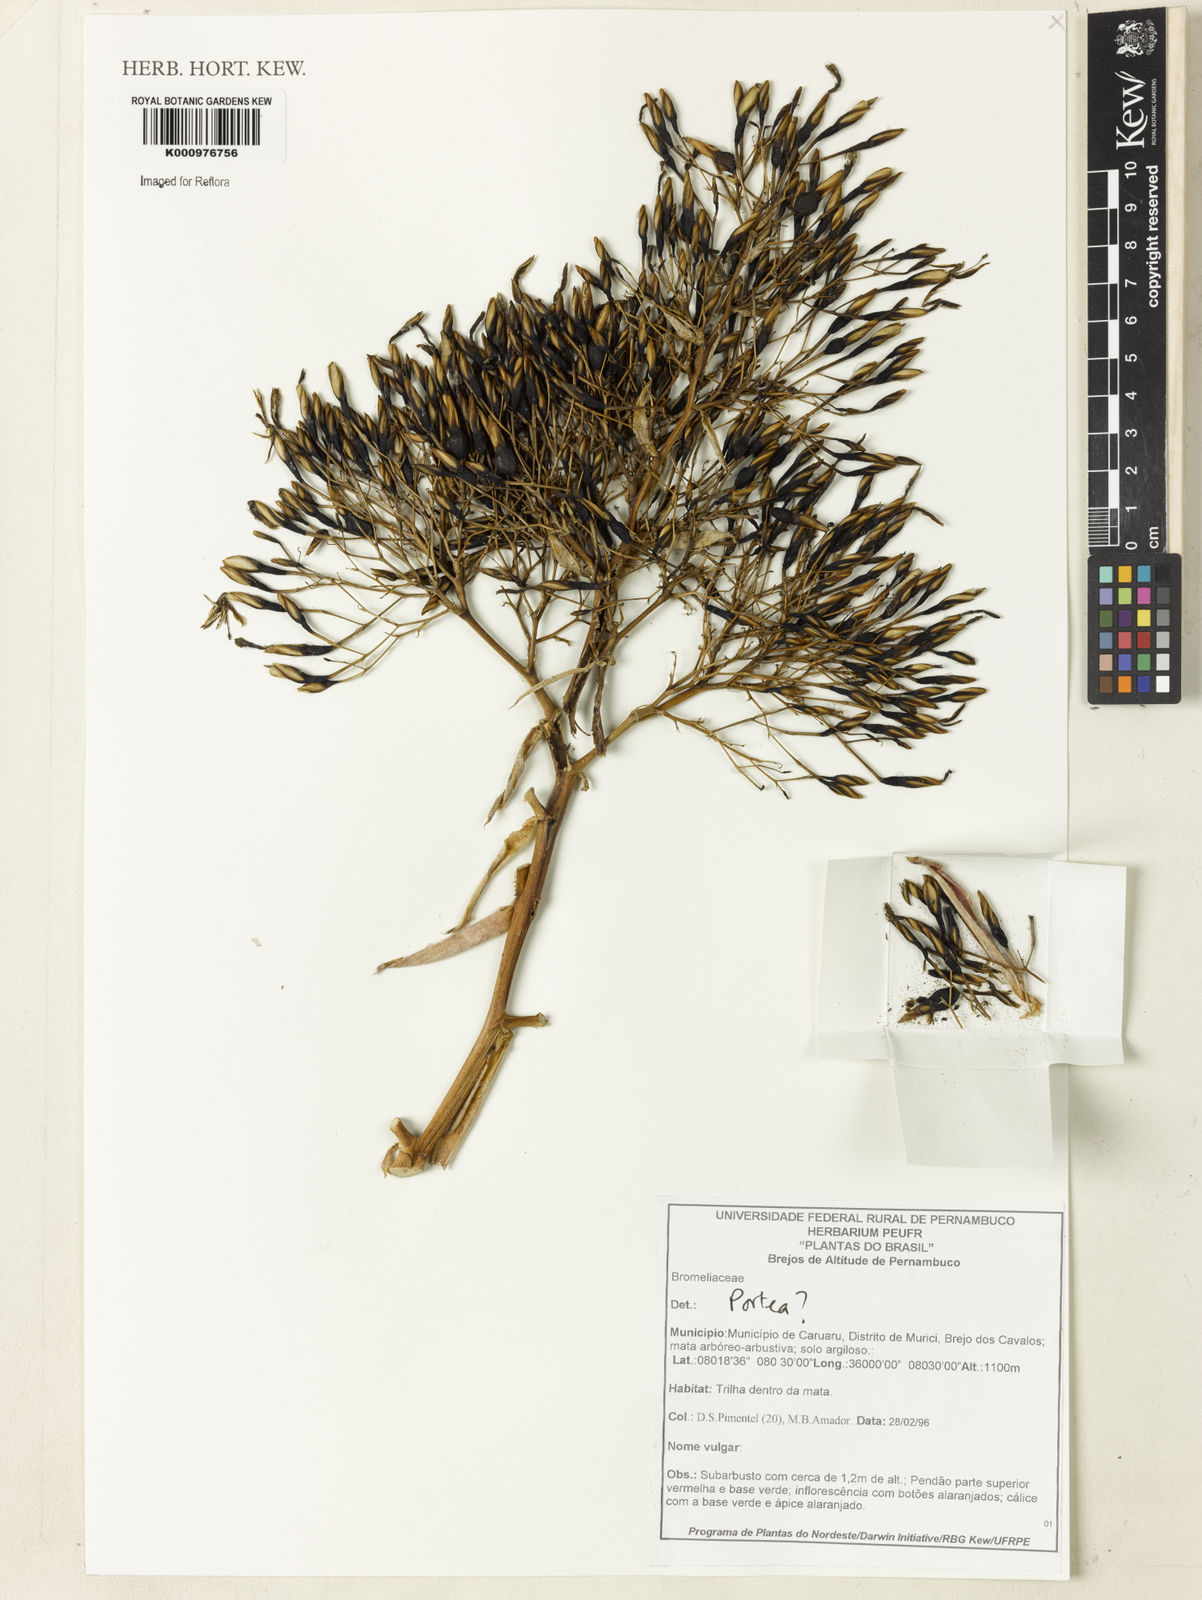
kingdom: Plantae
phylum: Tracheophyta
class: Liliopsida
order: Poales
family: Bromeliaceae
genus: Portea
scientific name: Portea
